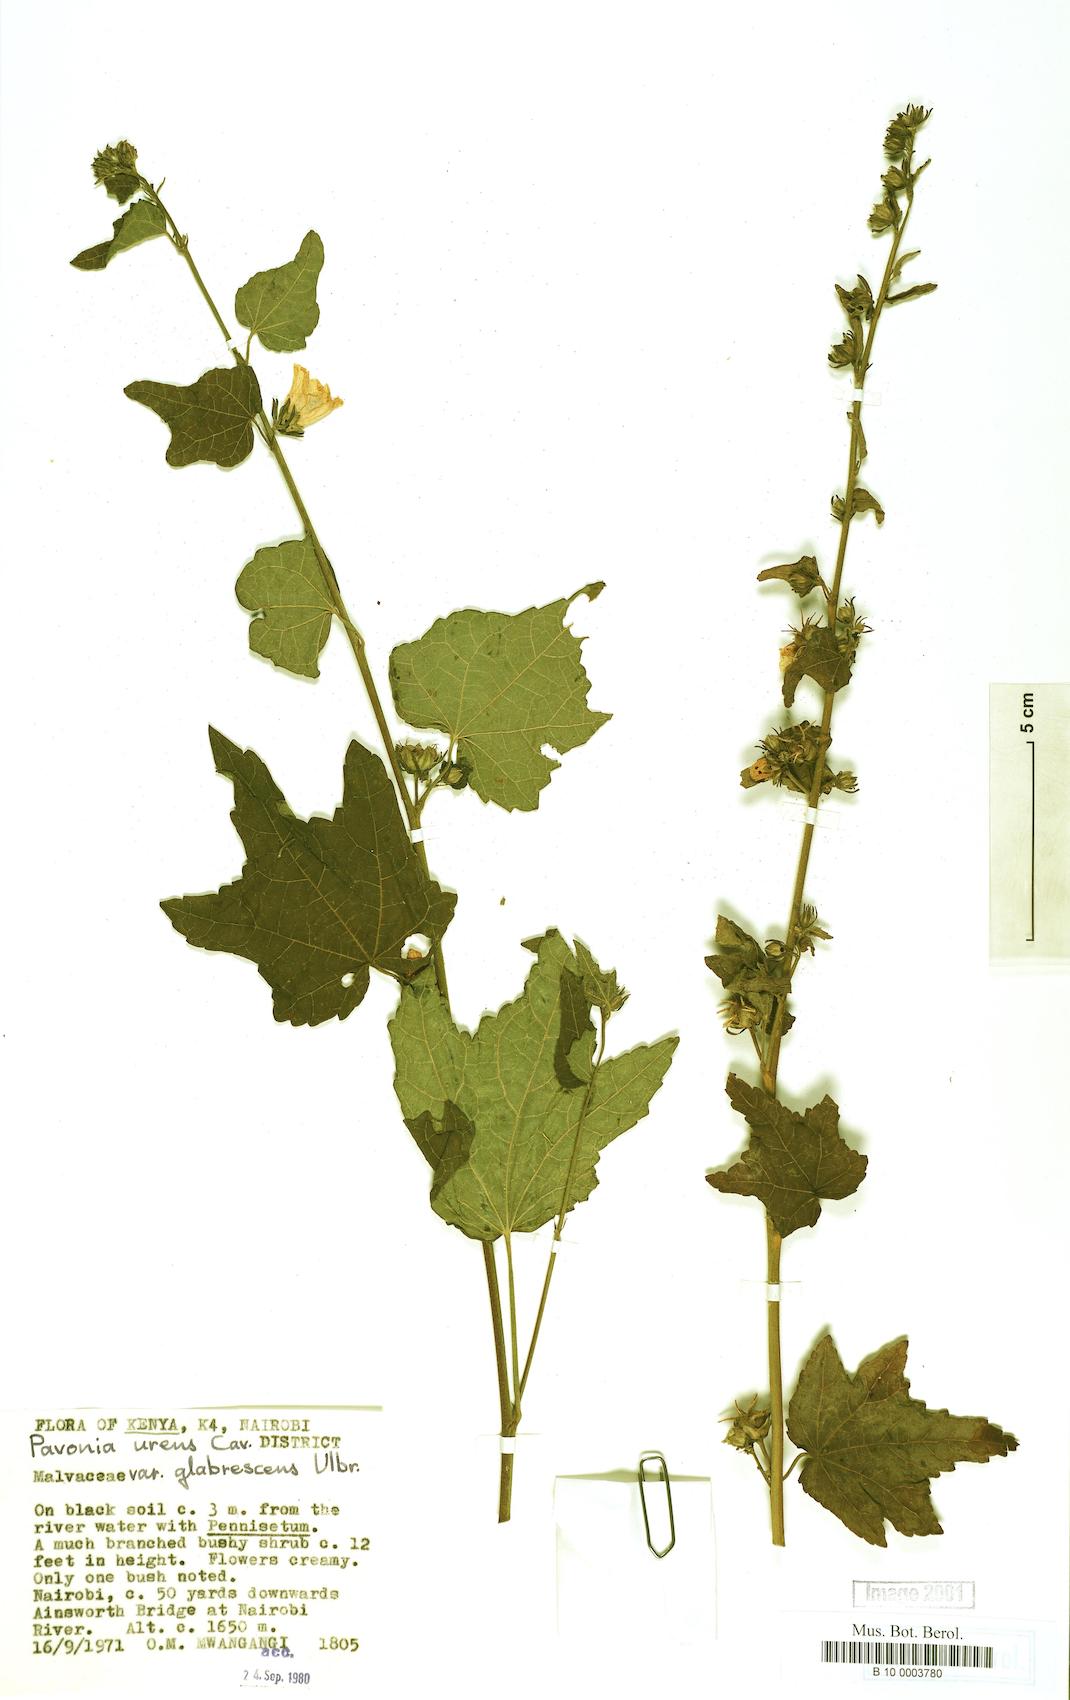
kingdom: Plantae
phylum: Tracheophyta
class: Magnoliopsida
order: Malvales
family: Malvaceae
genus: Pavonia
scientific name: Pavonia schimperiana
